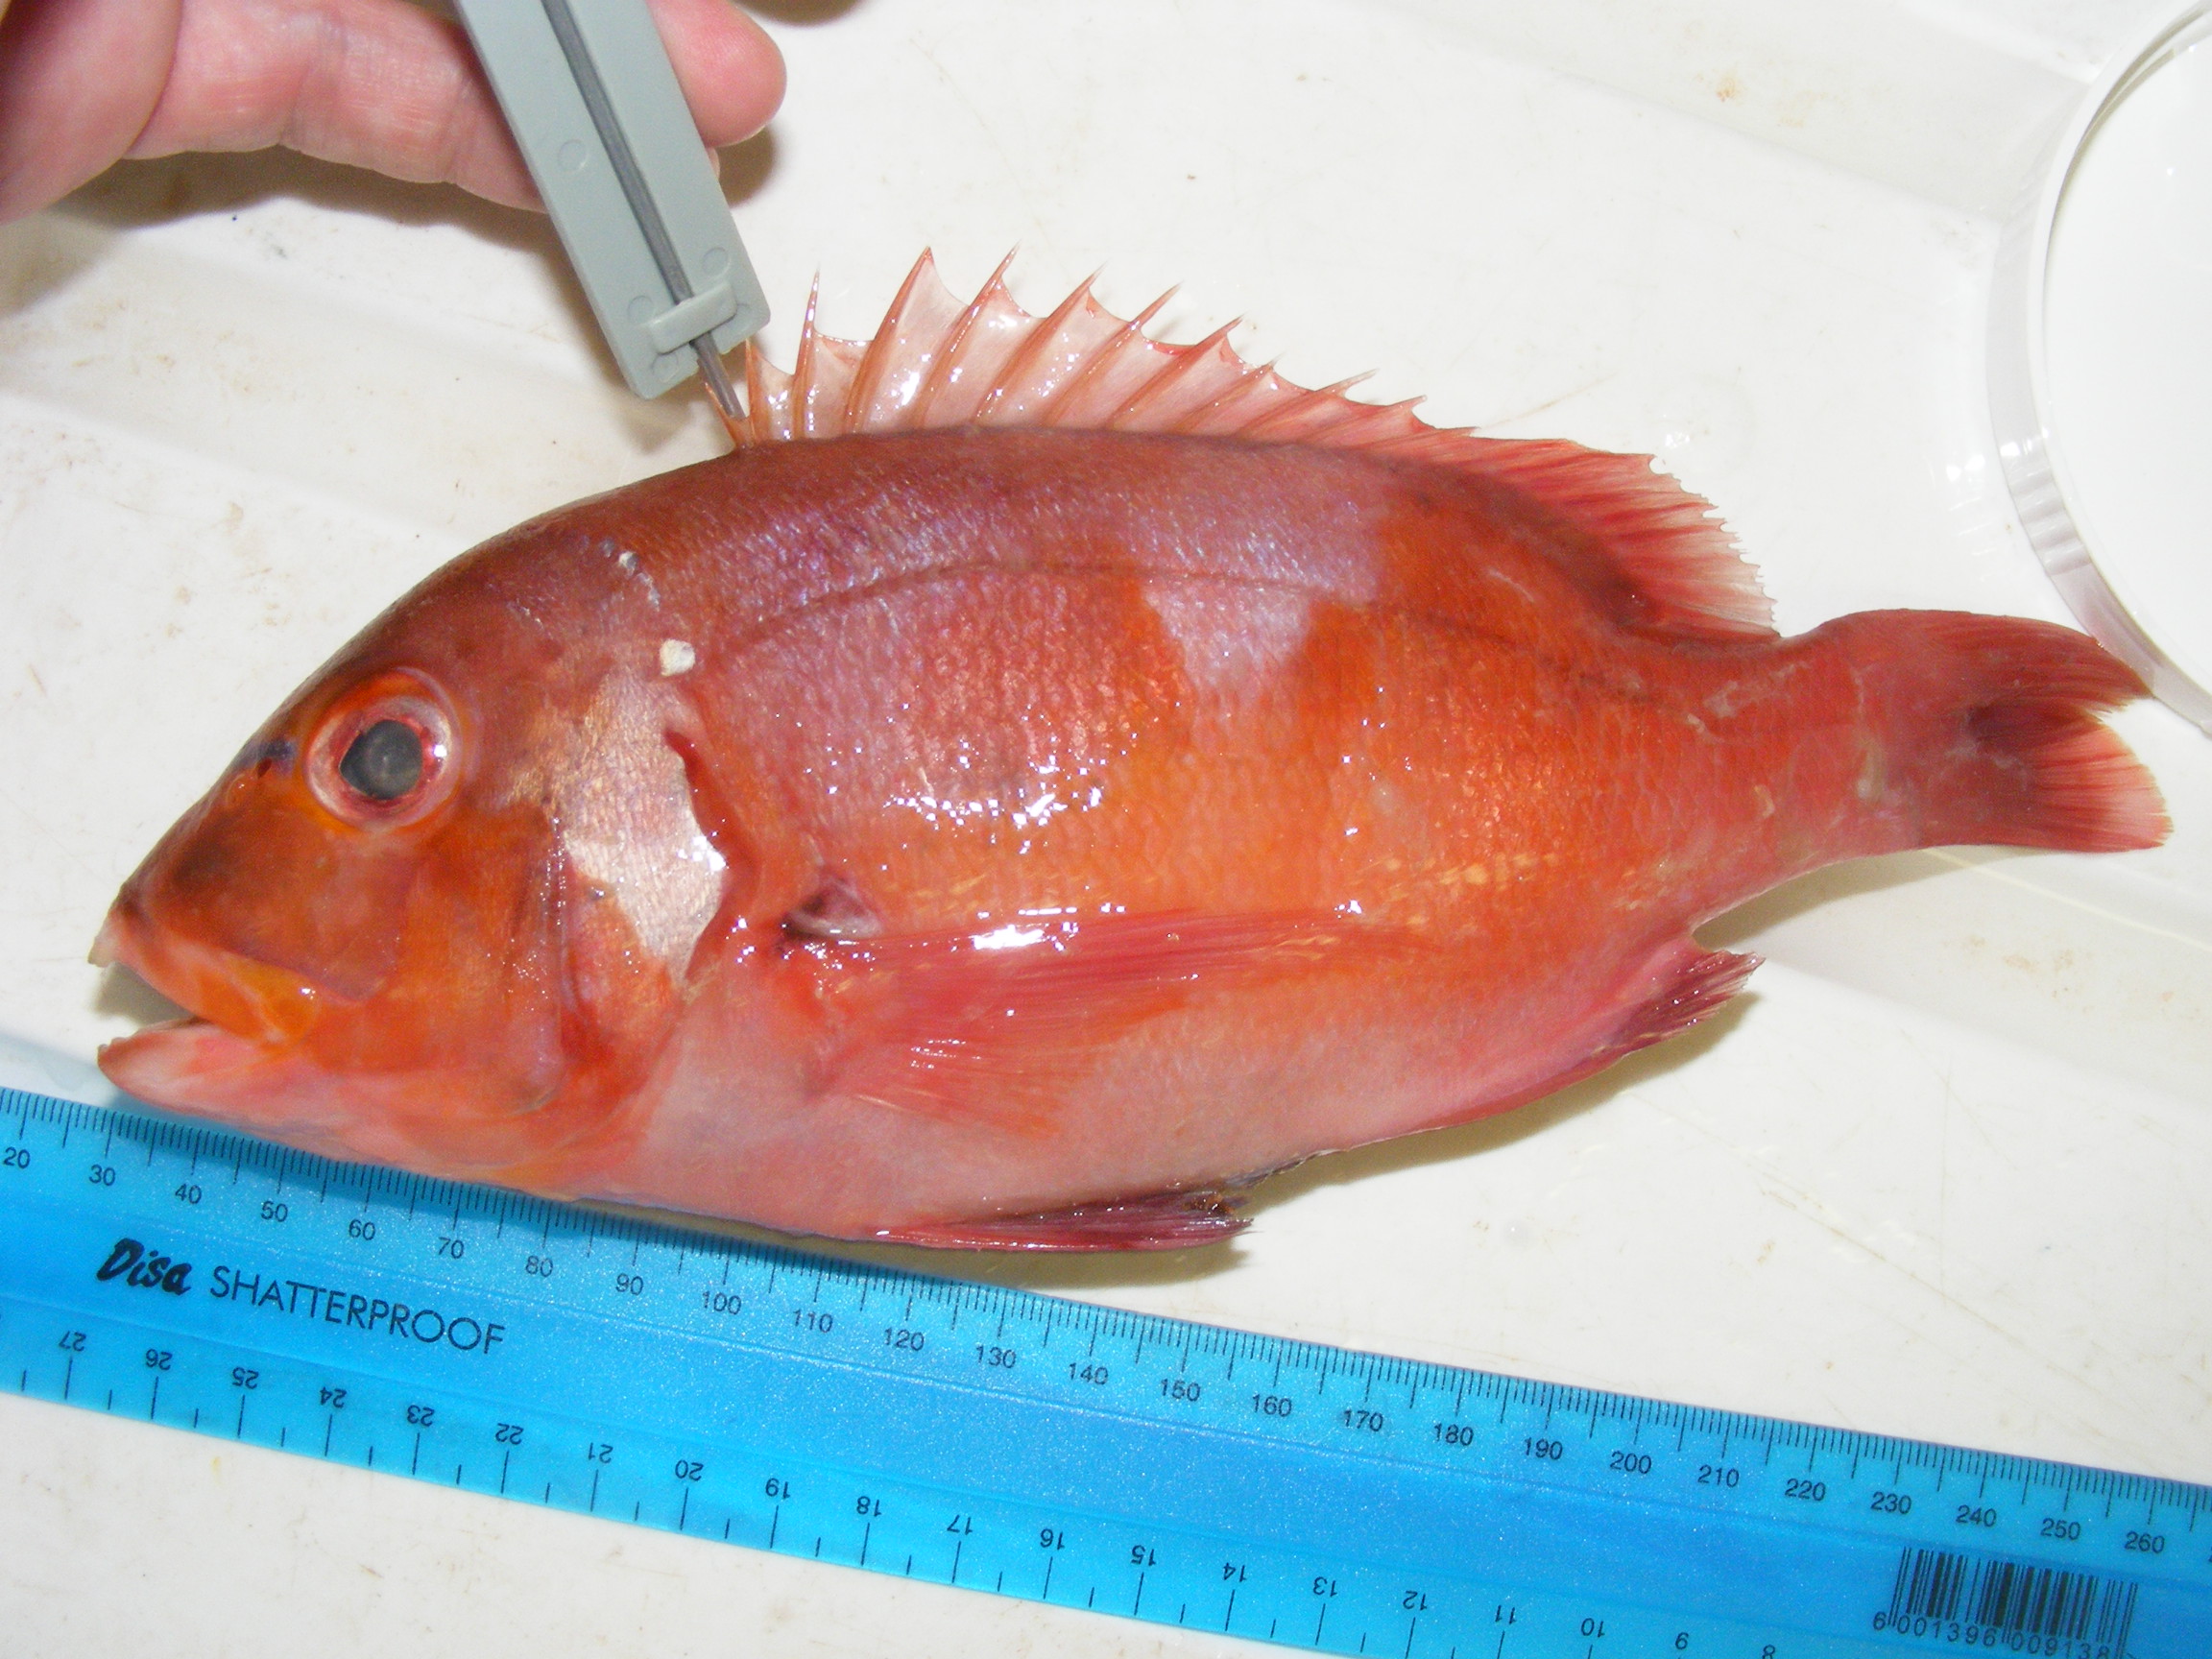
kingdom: Animalia
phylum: Chordata
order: Perciformes
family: Sparidae
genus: Chrysoblephus
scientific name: Chrysoblephus laticeps
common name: Roman seabream
